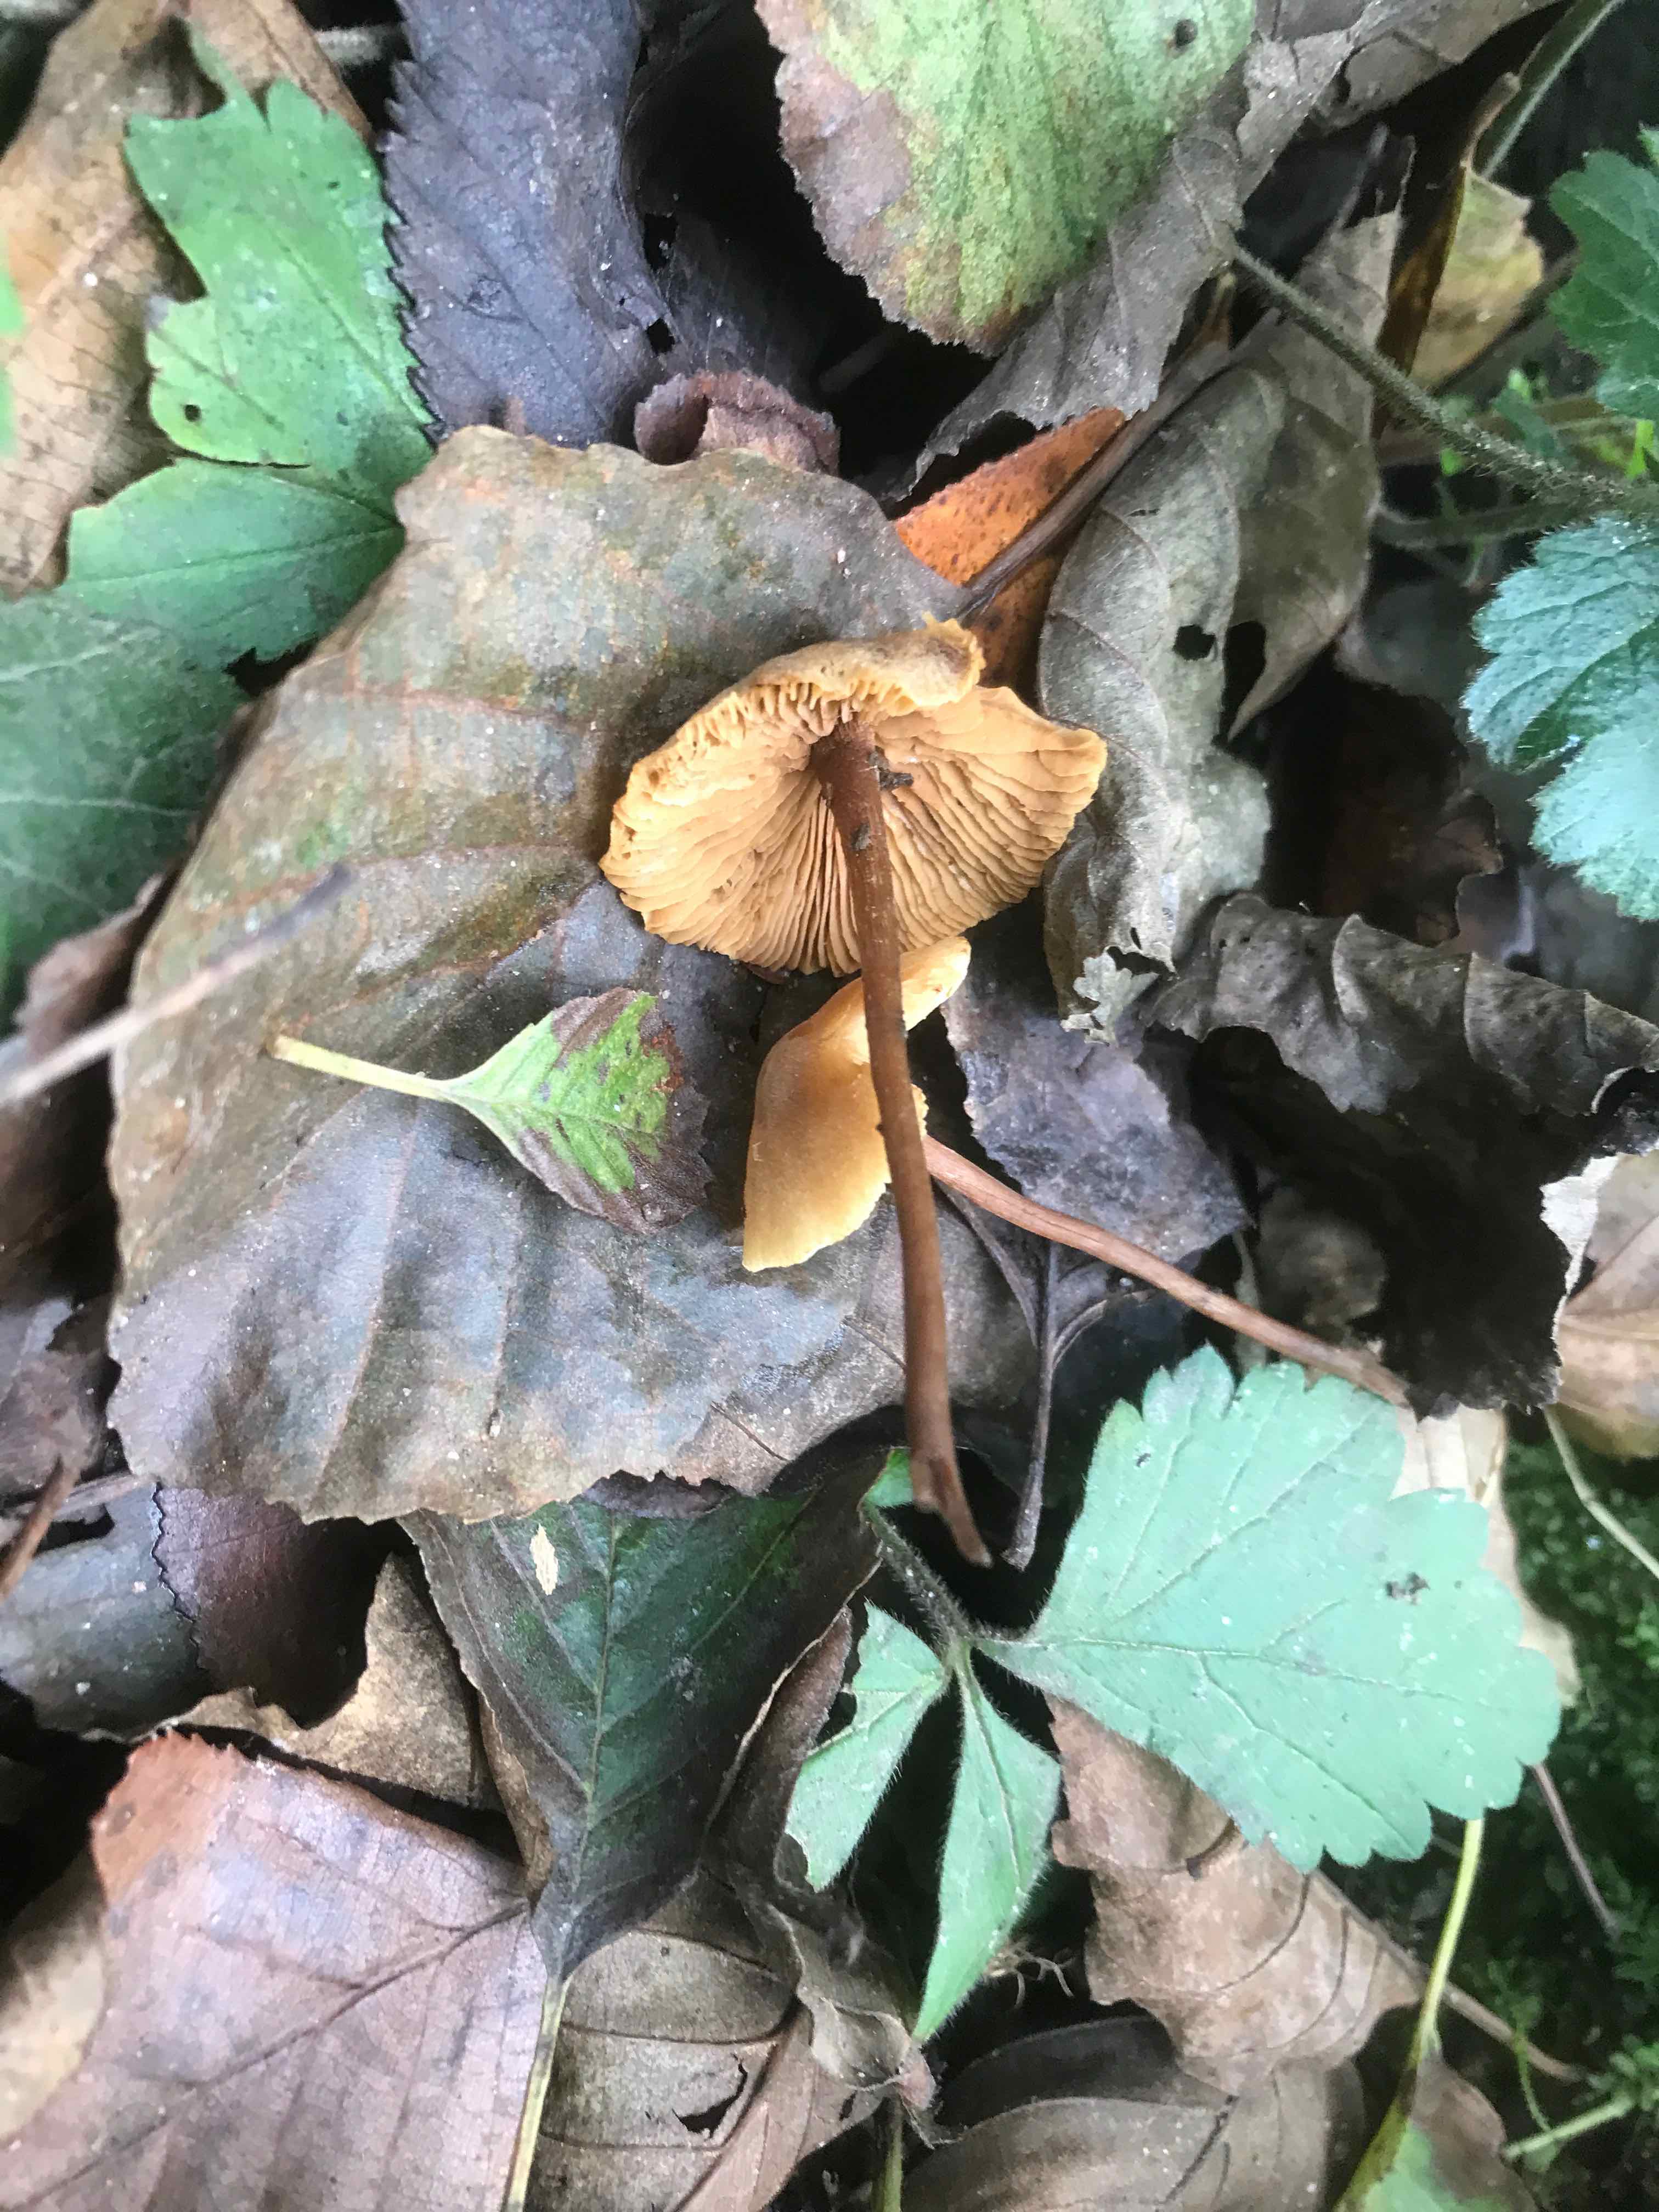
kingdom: Fungi
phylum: Basidiomycota
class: Agaricomycetes
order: Agaricales
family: Hymenogastraceae
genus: Naucoria
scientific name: Naucoria
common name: knaphat
